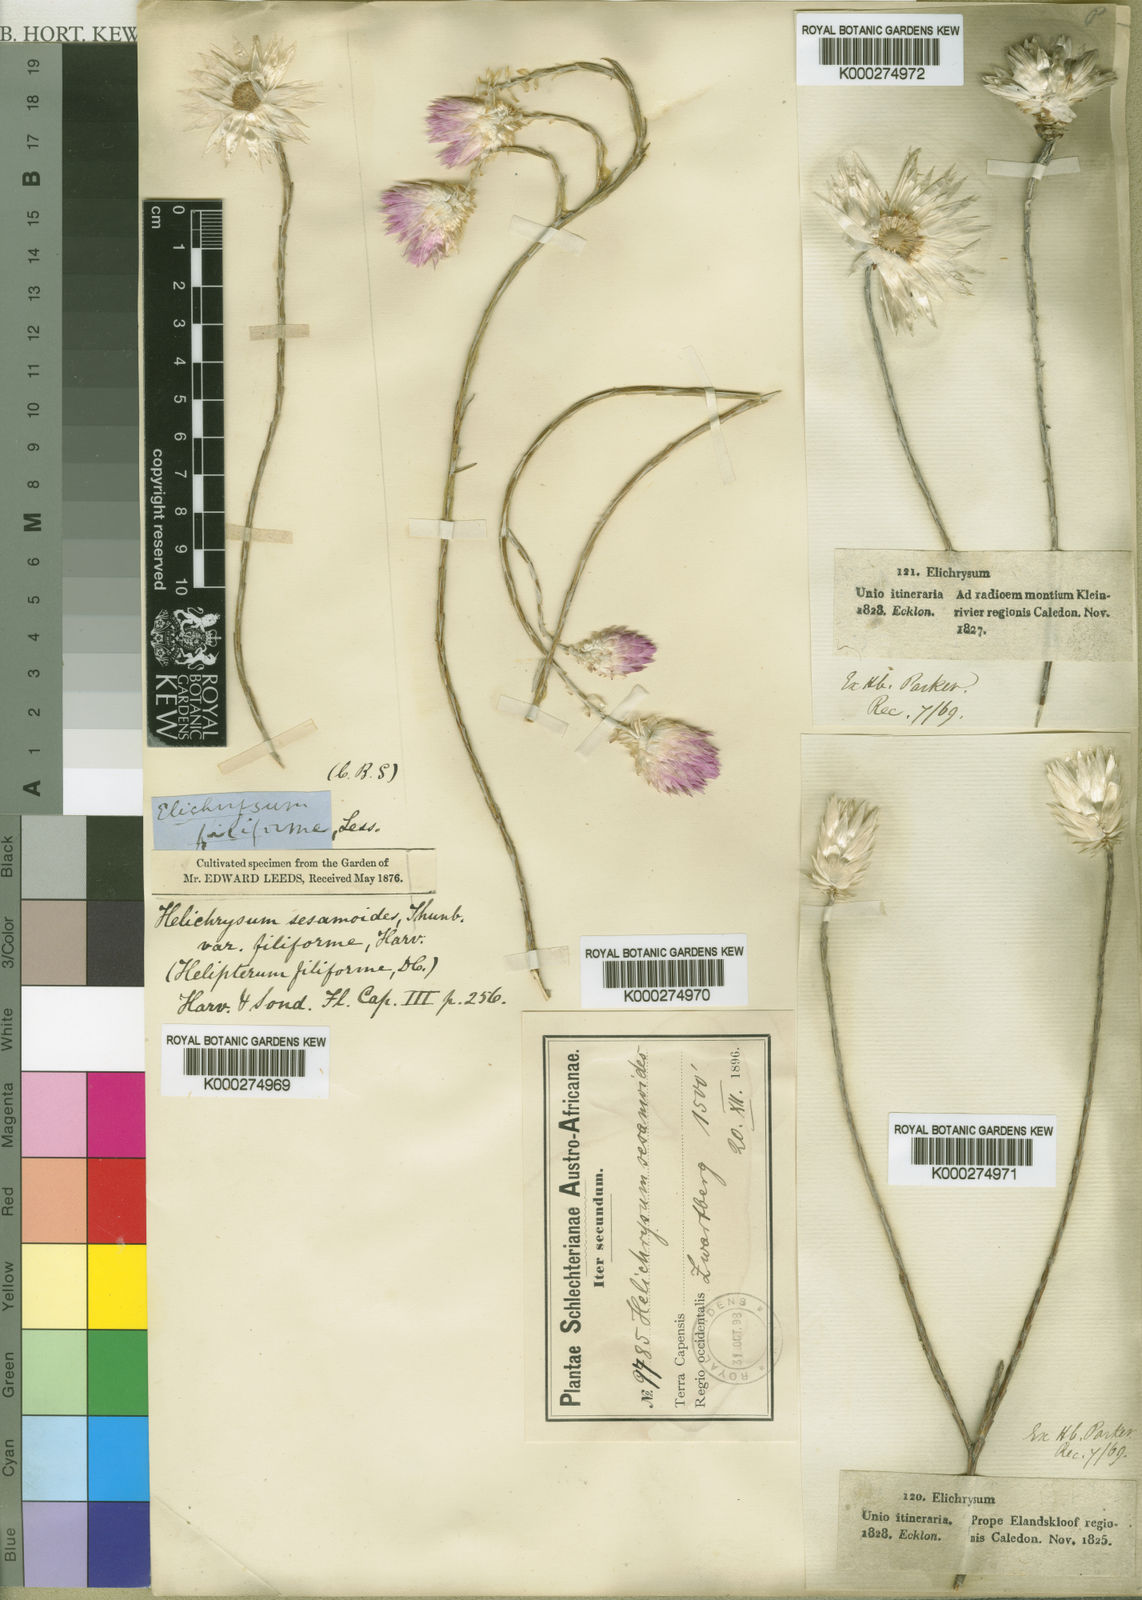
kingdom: Plantae
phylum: Tracheophyta
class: Magnoliopsida
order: Asterales
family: Asteraceae
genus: Edmondia
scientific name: Edmondia sesamoides
